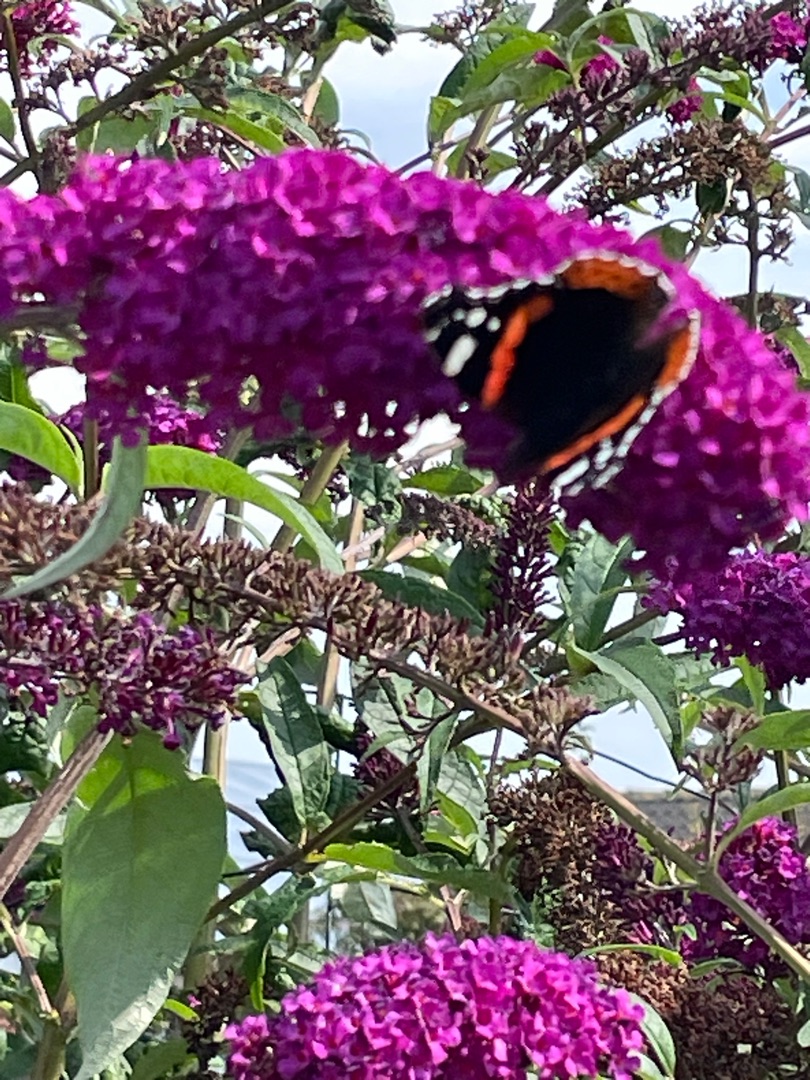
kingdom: Animalia
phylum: Arthropoda
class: Insecta
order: Lepidoptera
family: Nymphalidae
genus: Vanessa
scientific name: Vanessa atalanta
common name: Admiral
